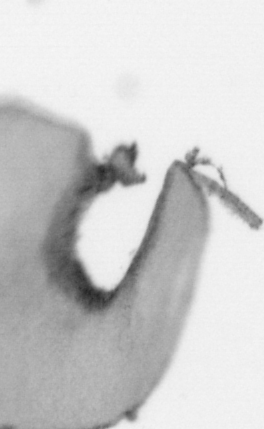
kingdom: Animalia
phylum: Chordata
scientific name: Chordata
